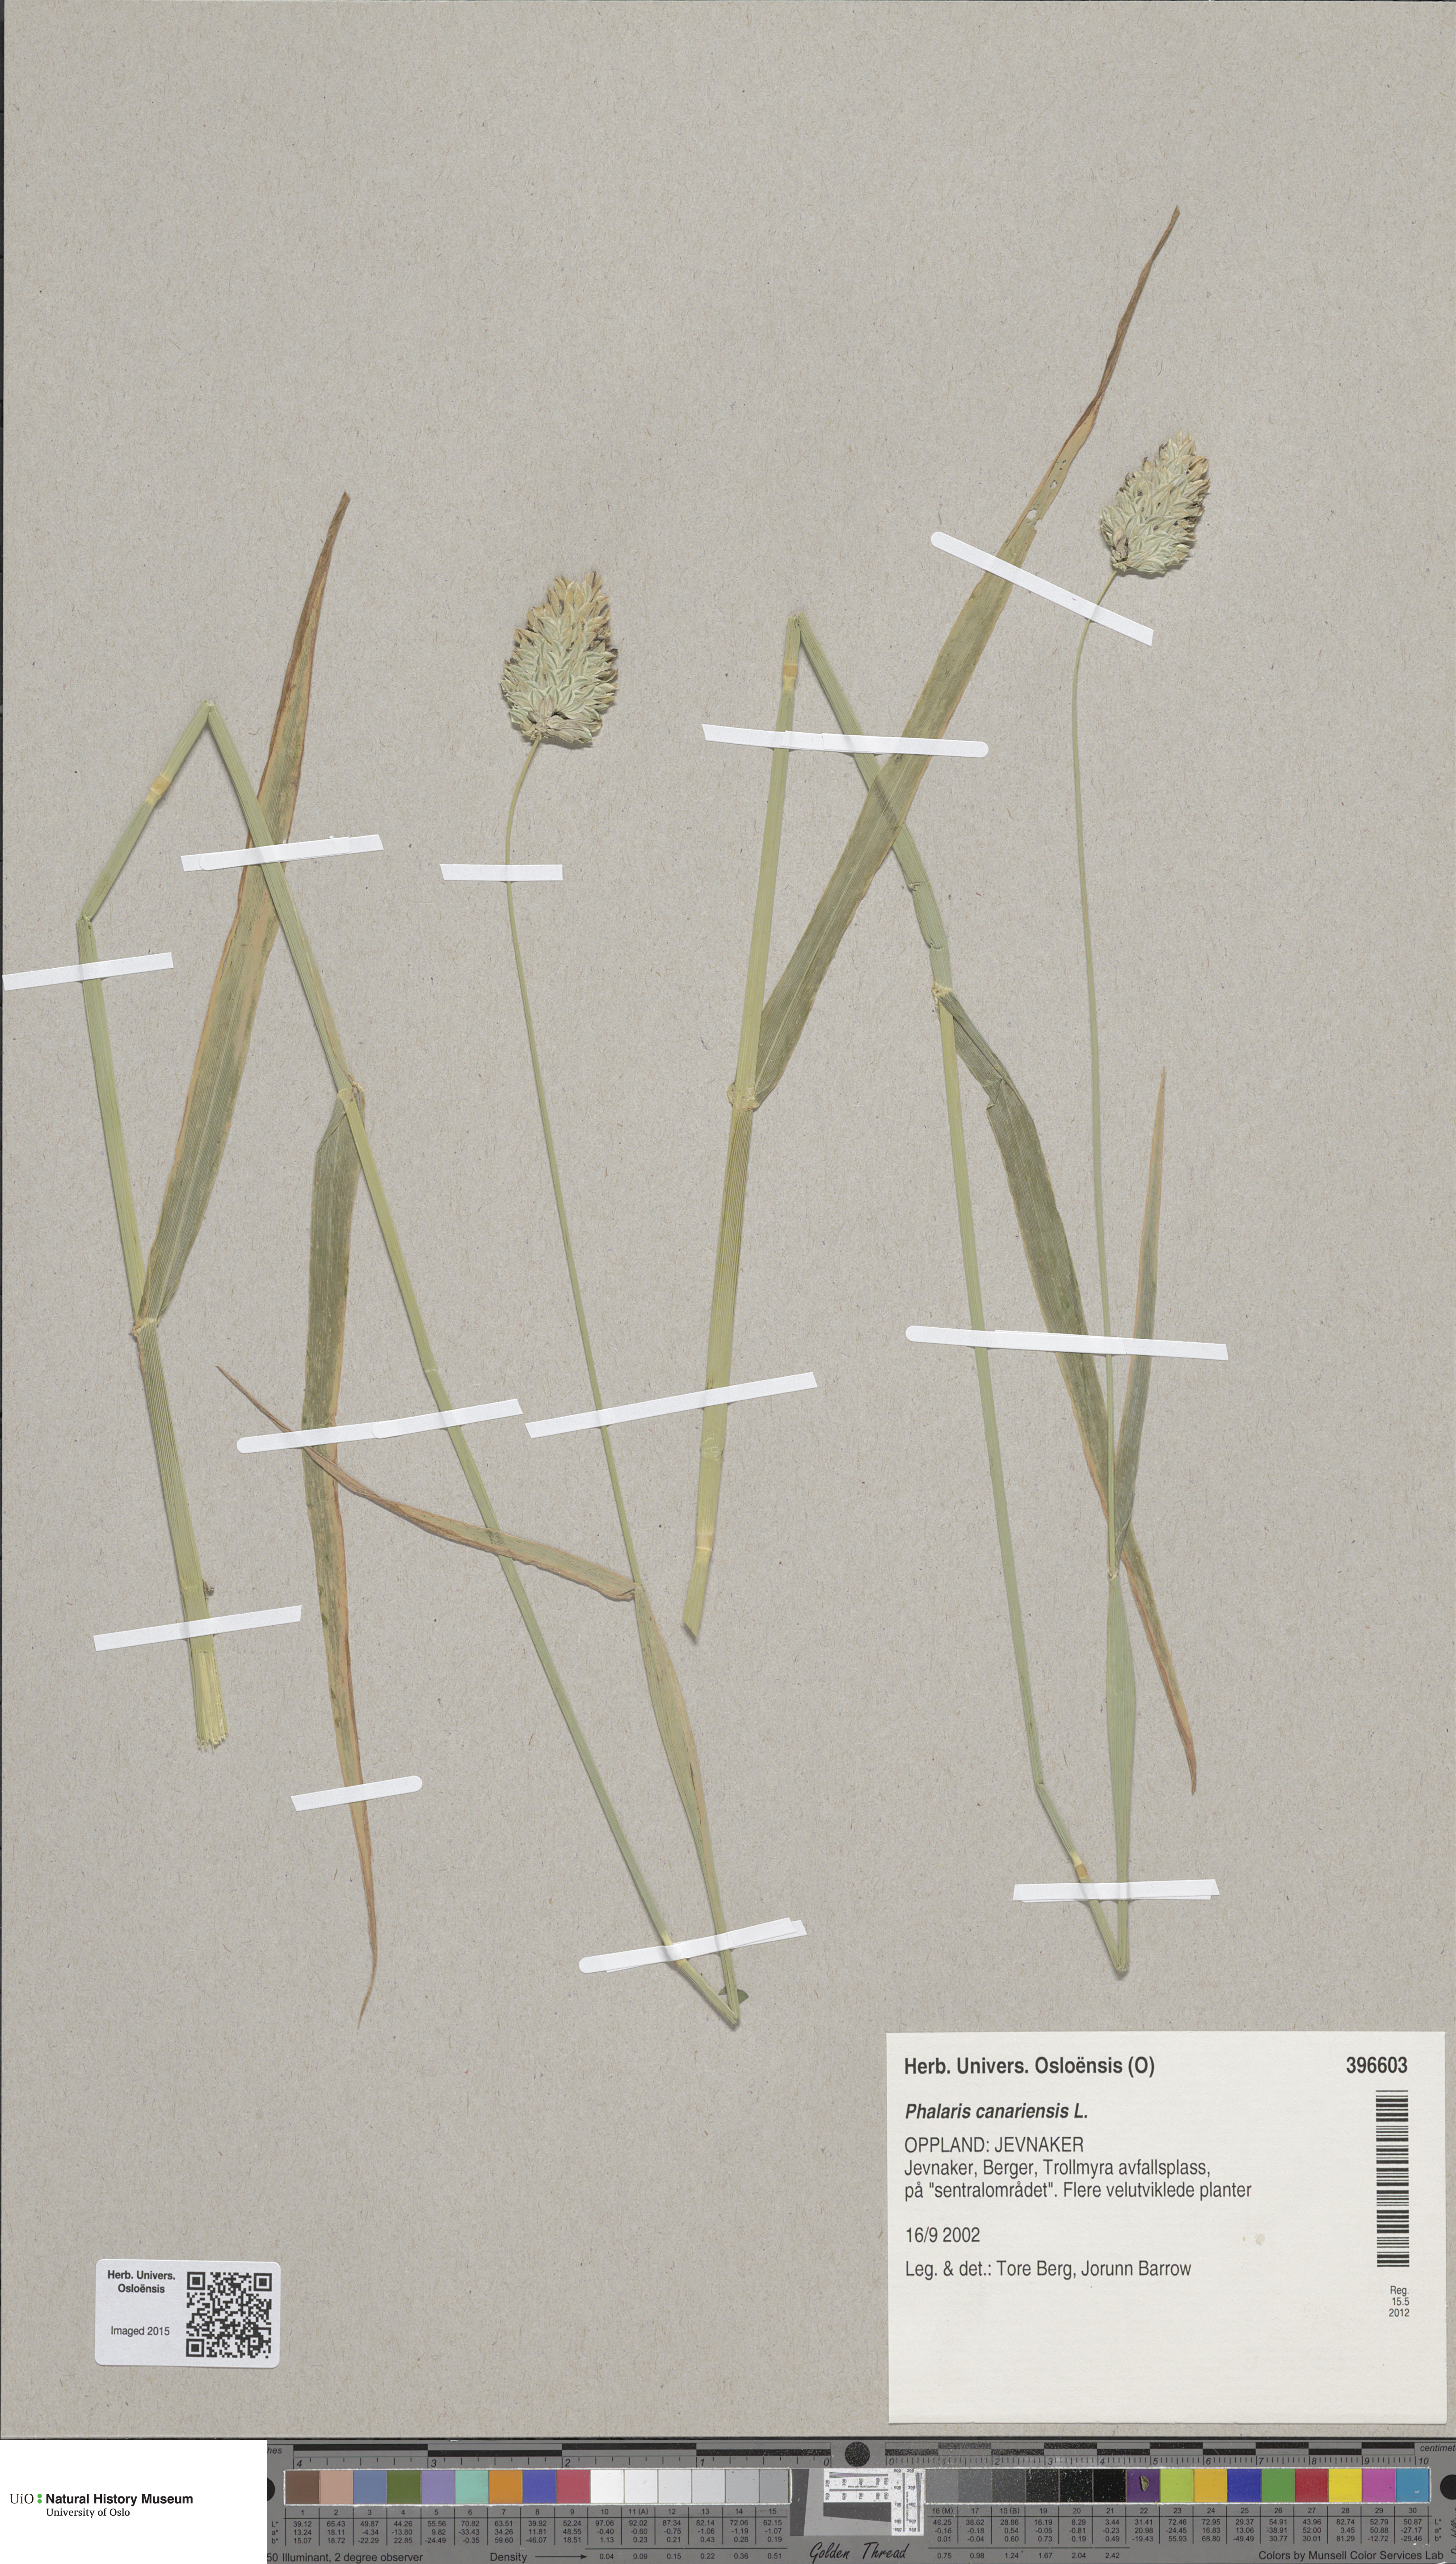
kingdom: Plantae
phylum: Tracheophyta
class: Liliopsida
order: Poales
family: Poaceae
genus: Phalaris
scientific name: Phalaris canariensis
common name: Annual canarygrass
